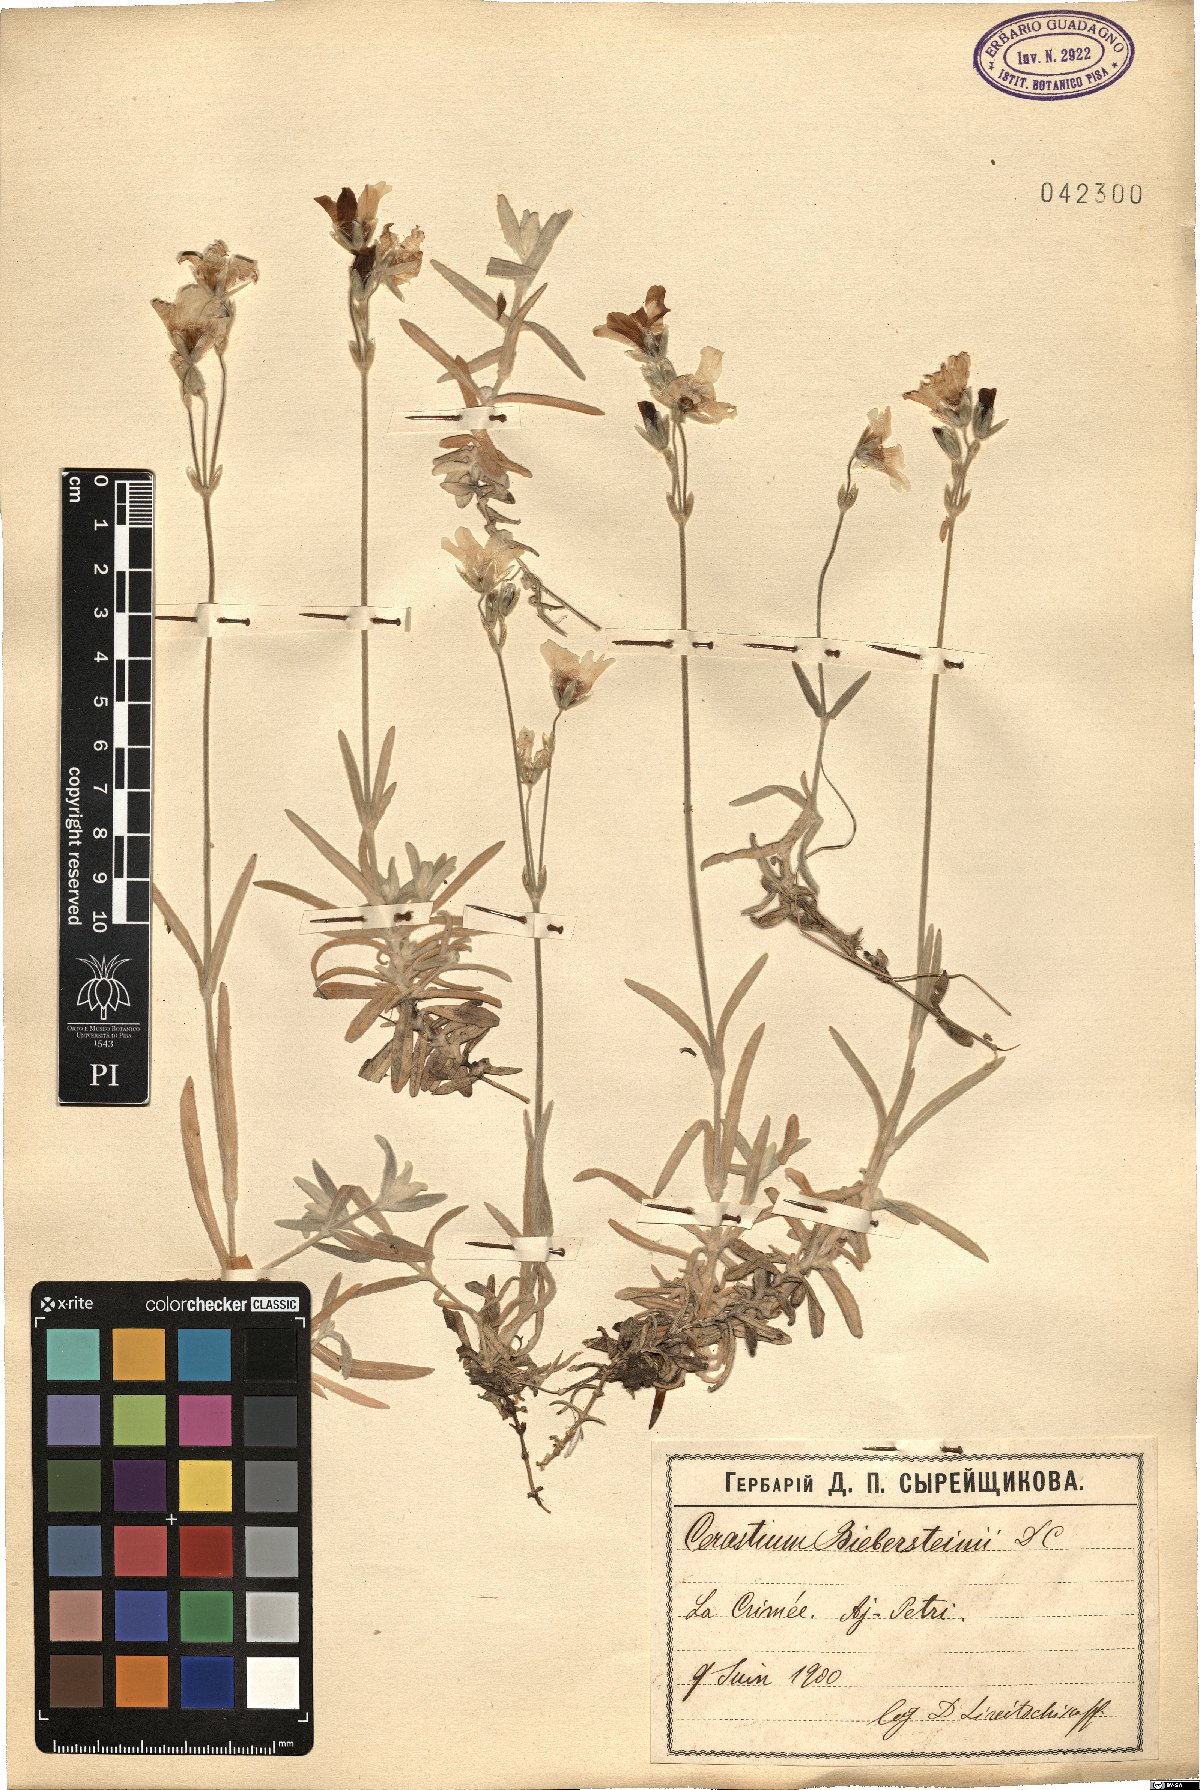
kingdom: Plantae
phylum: Tracheophyta
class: Magnoliopsida
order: Caryophyllales
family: Caryophyllaceae
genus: Cerastium
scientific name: Cerastium biebersteinii
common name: Snow-in-summer
